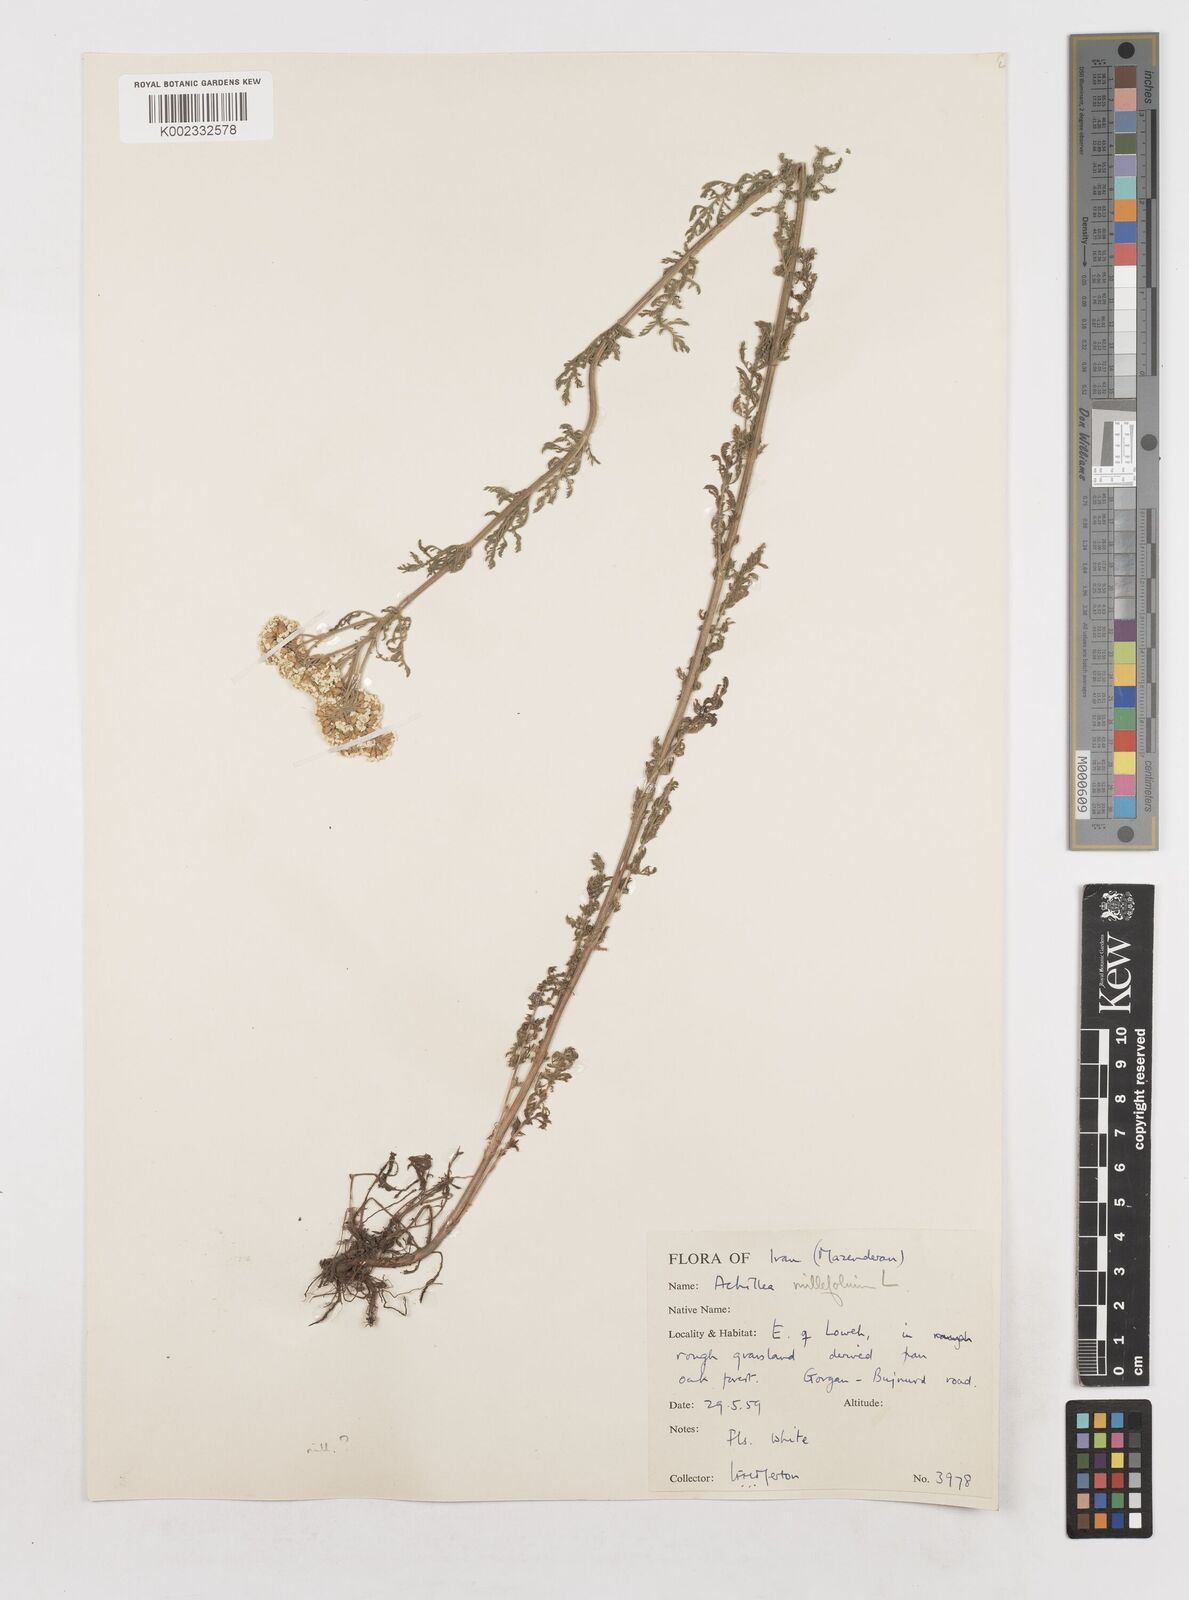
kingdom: Plantae
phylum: Tracheophyta
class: Magnoliopsida
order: Asterales
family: Asteraceae
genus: Achillea
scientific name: Achillea millefolium
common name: Yarrow
